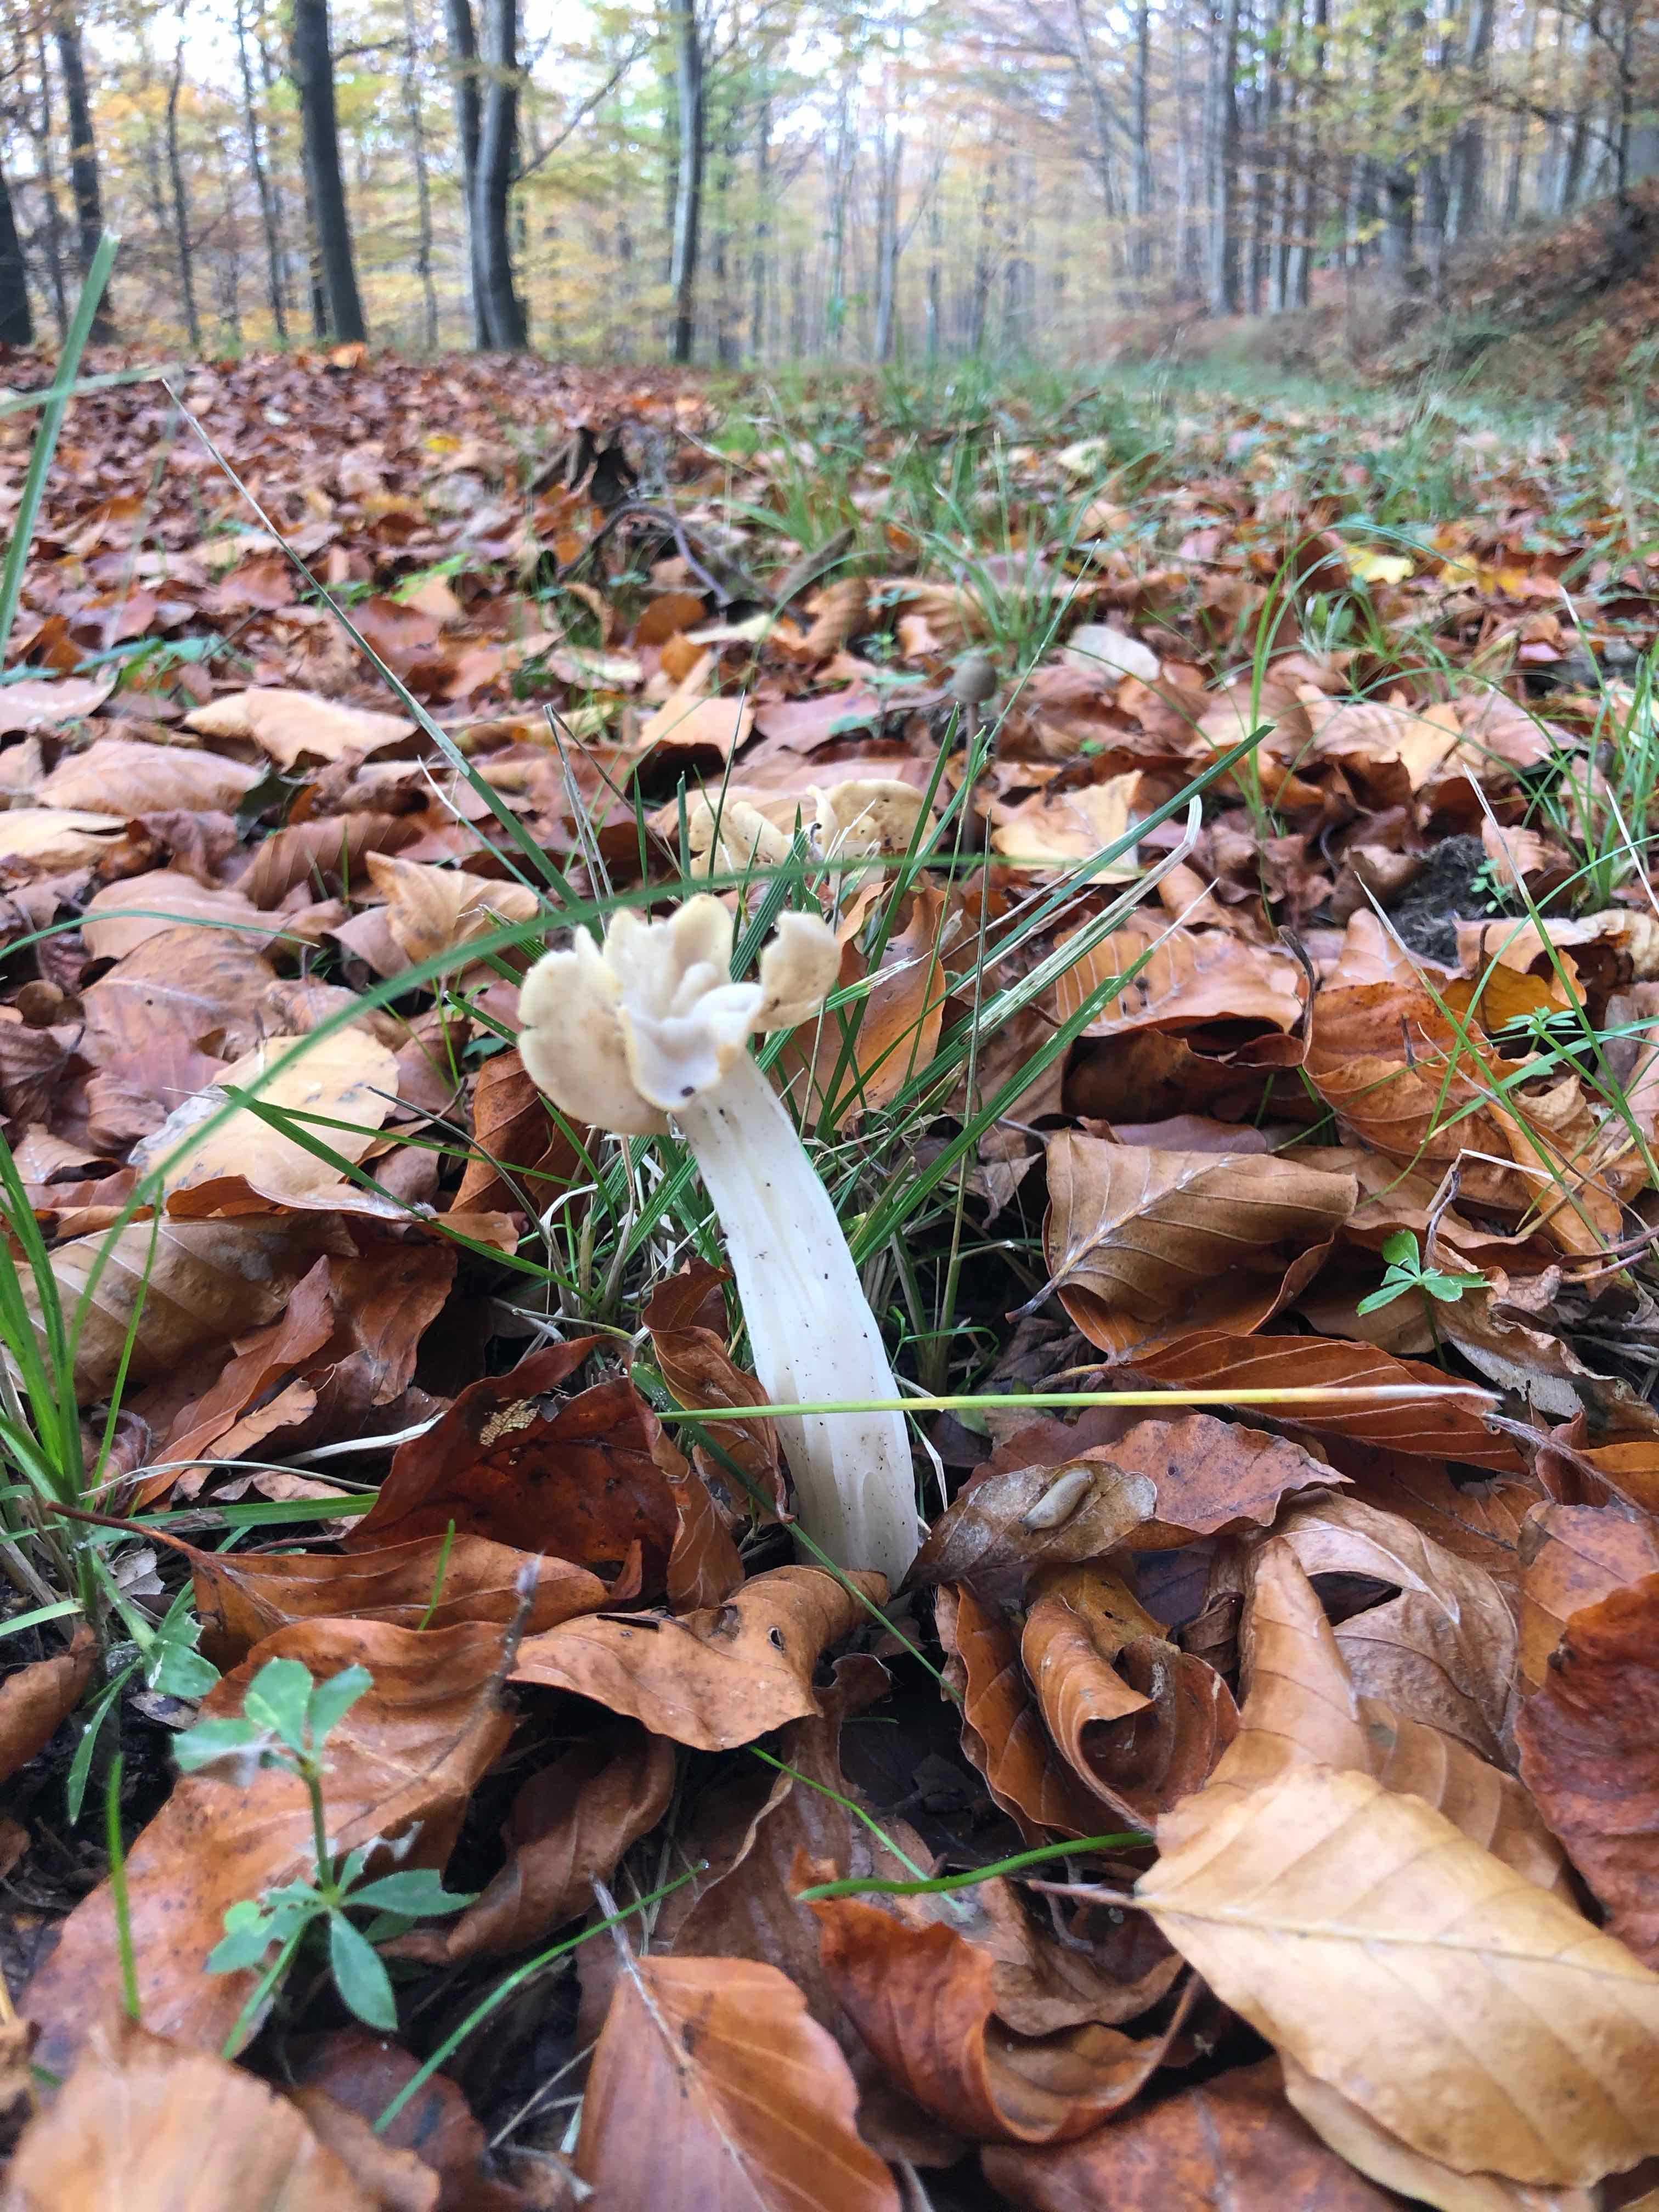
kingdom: Fungi
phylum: Ascomycota
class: Pezizomycetes
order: Pezizales
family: Helvellaceae
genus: Helvella
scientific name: Helvella crispa
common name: kruset foldhat
